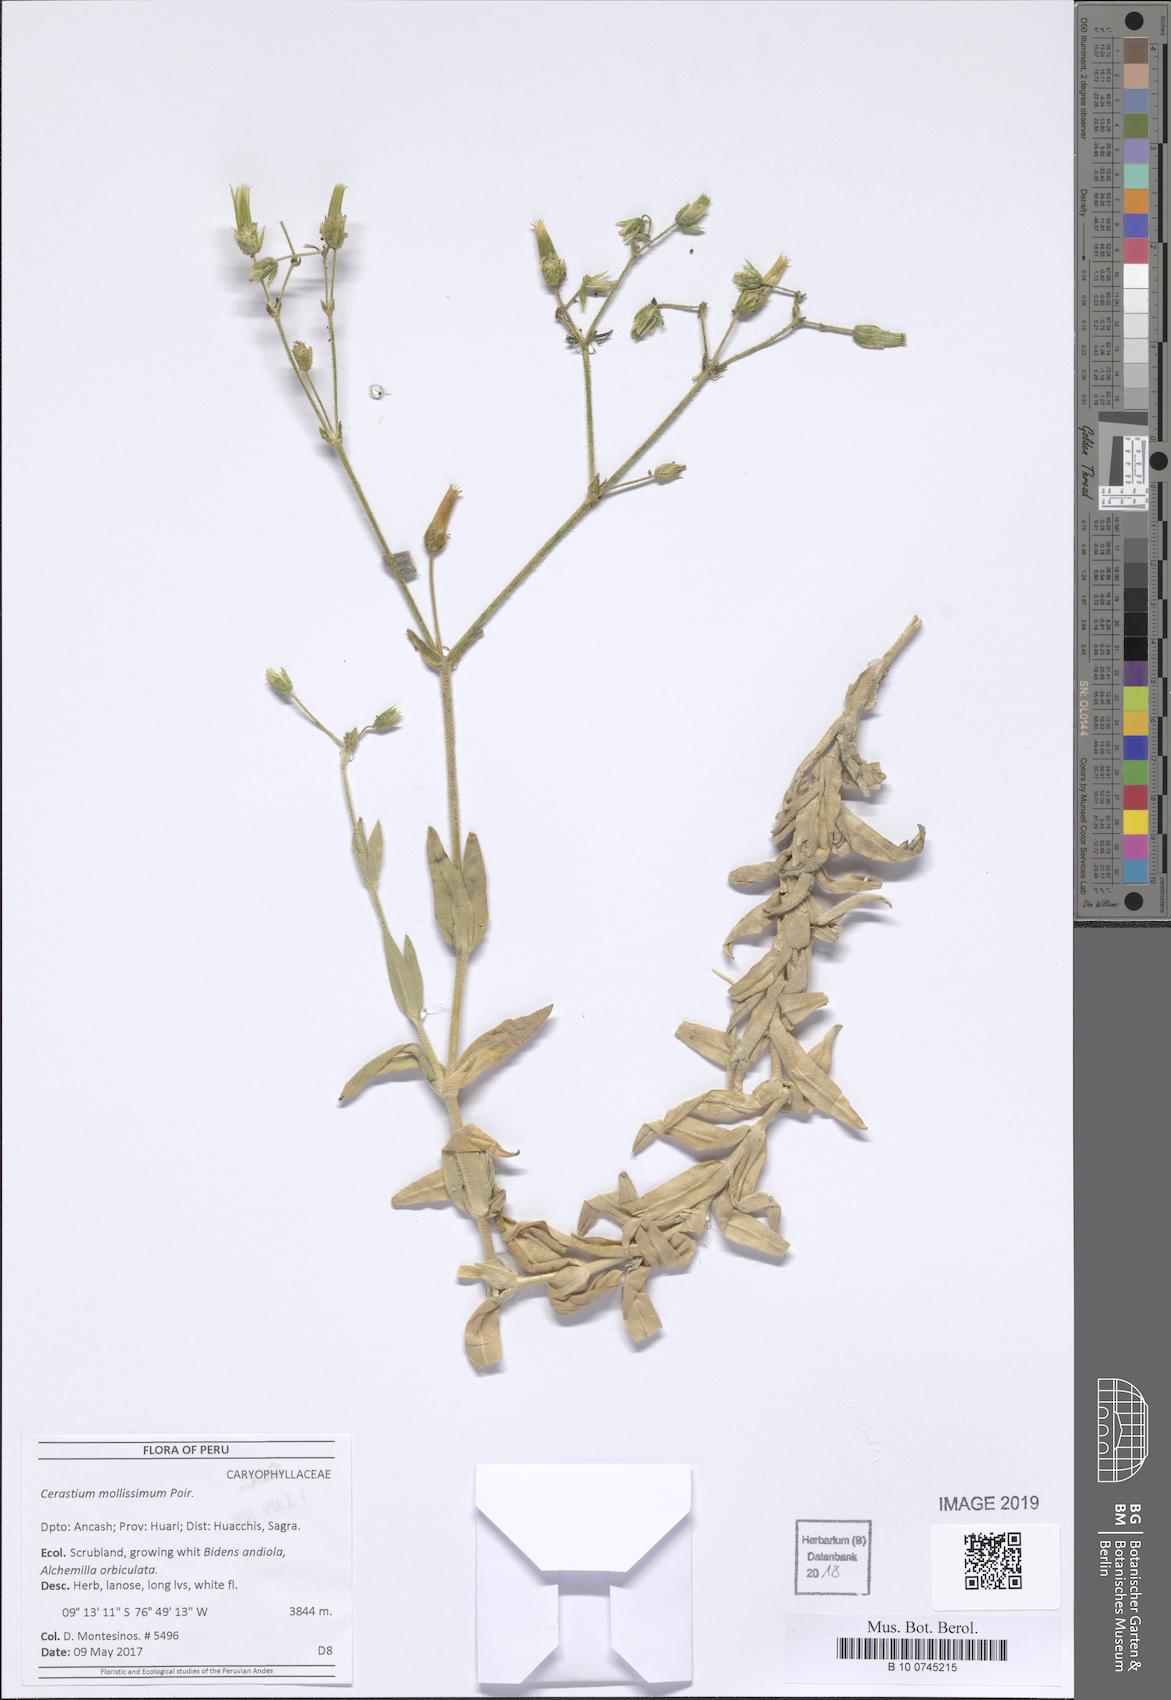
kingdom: Plantae
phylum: Tracheophyta
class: Magnoliopsida
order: Caryophyllales
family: Caryophyllaceae
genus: Cerastium
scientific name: Cerastium mollissimum
